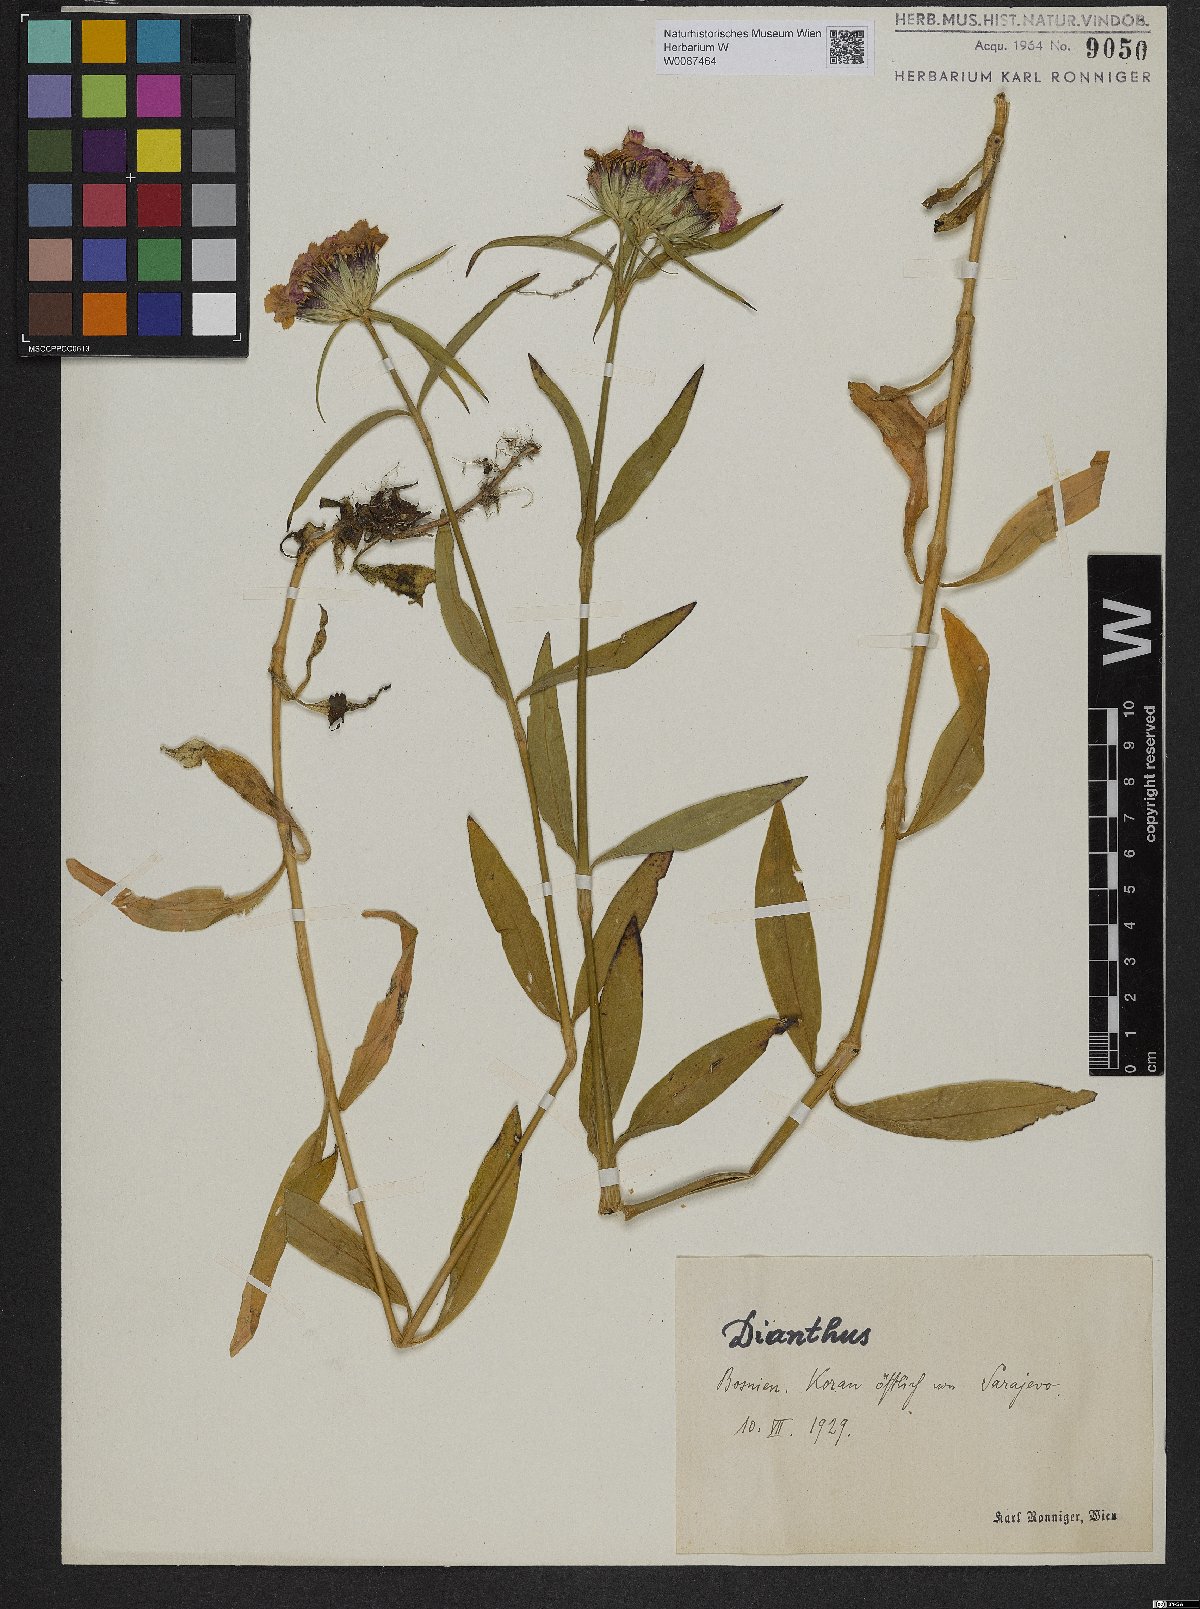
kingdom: Plantae
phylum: Tracheophyta
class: Magnoliopsida
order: Caryophyllales
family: Caryophyllaceae
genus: Dianthus
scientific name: Dianthus barbatus
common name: Sweet-william
